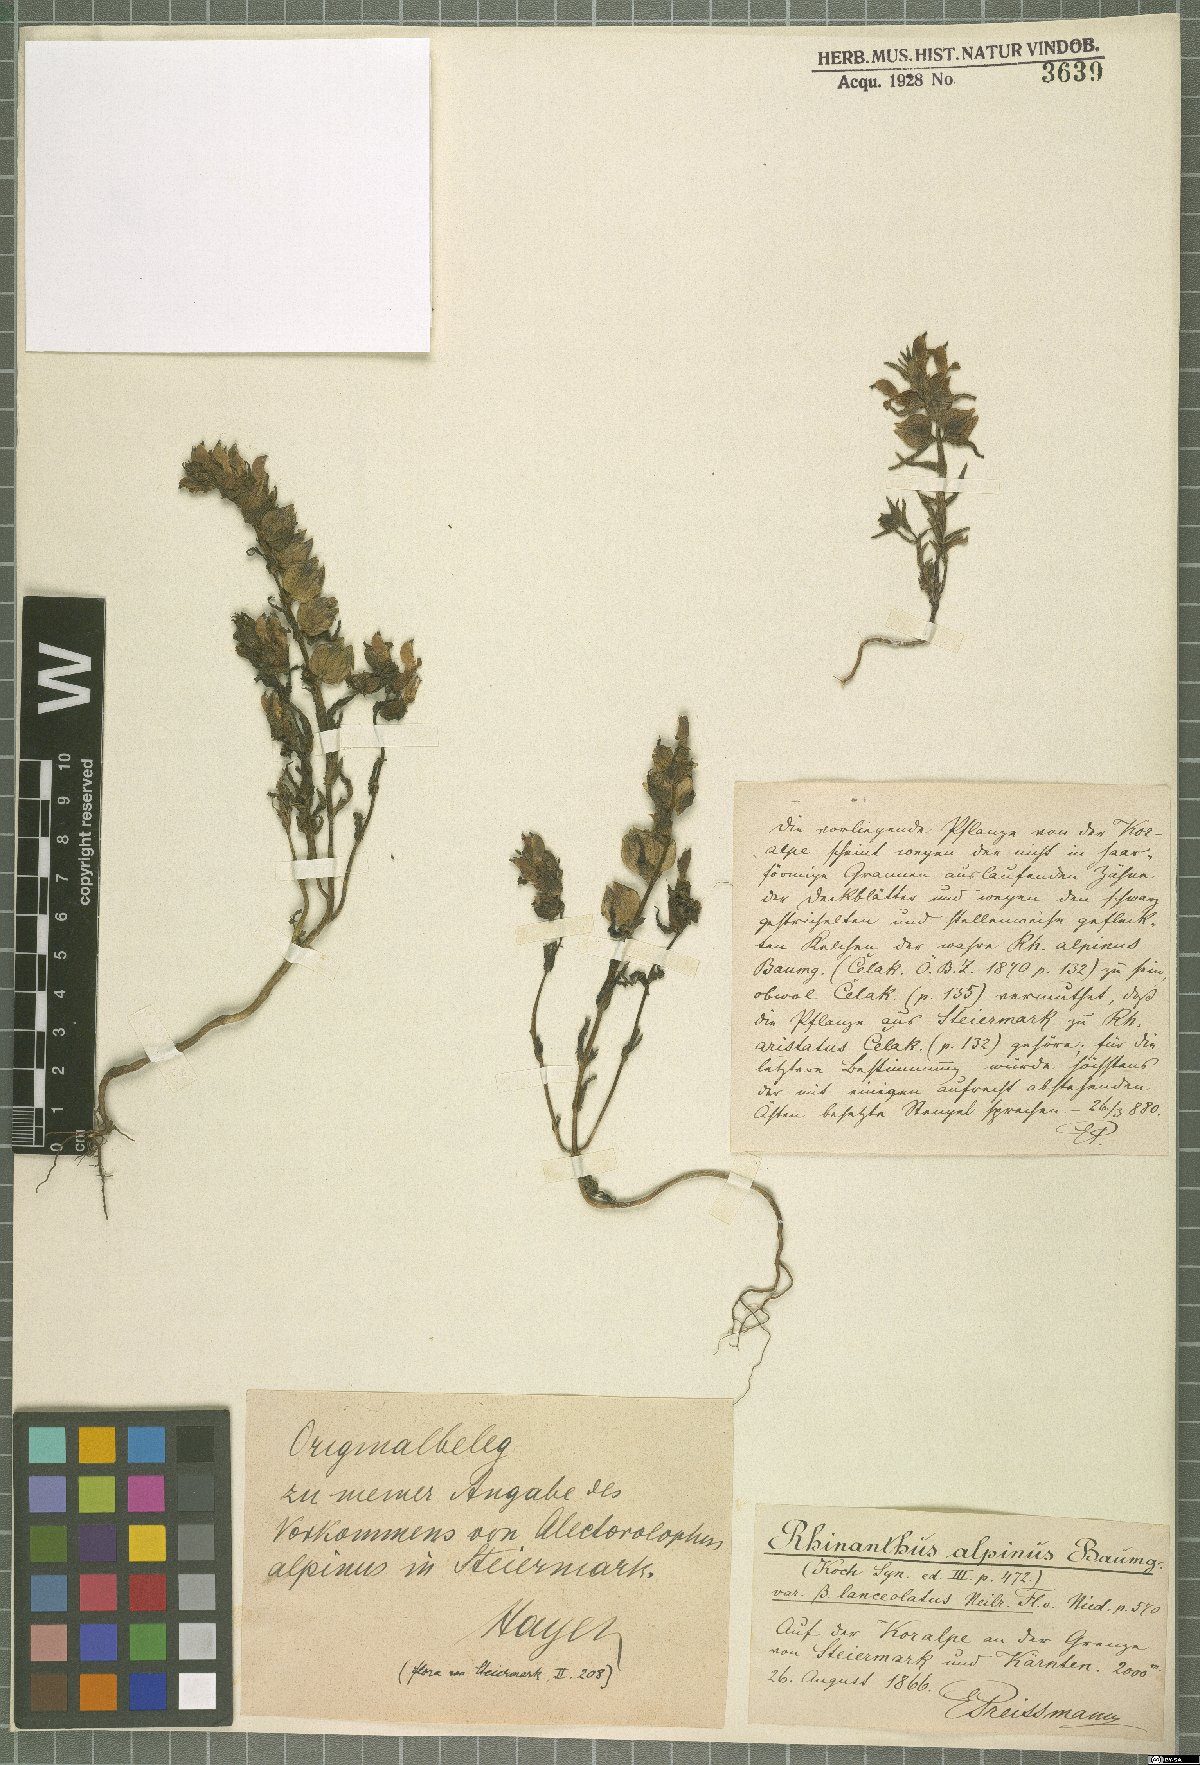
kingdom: Plantae
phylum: Tracheophyta
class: Magnoliopsida
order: Lamiales
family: Orobanchaceae
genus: Rhinanthus
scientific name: Rhinanthus riphaeus
